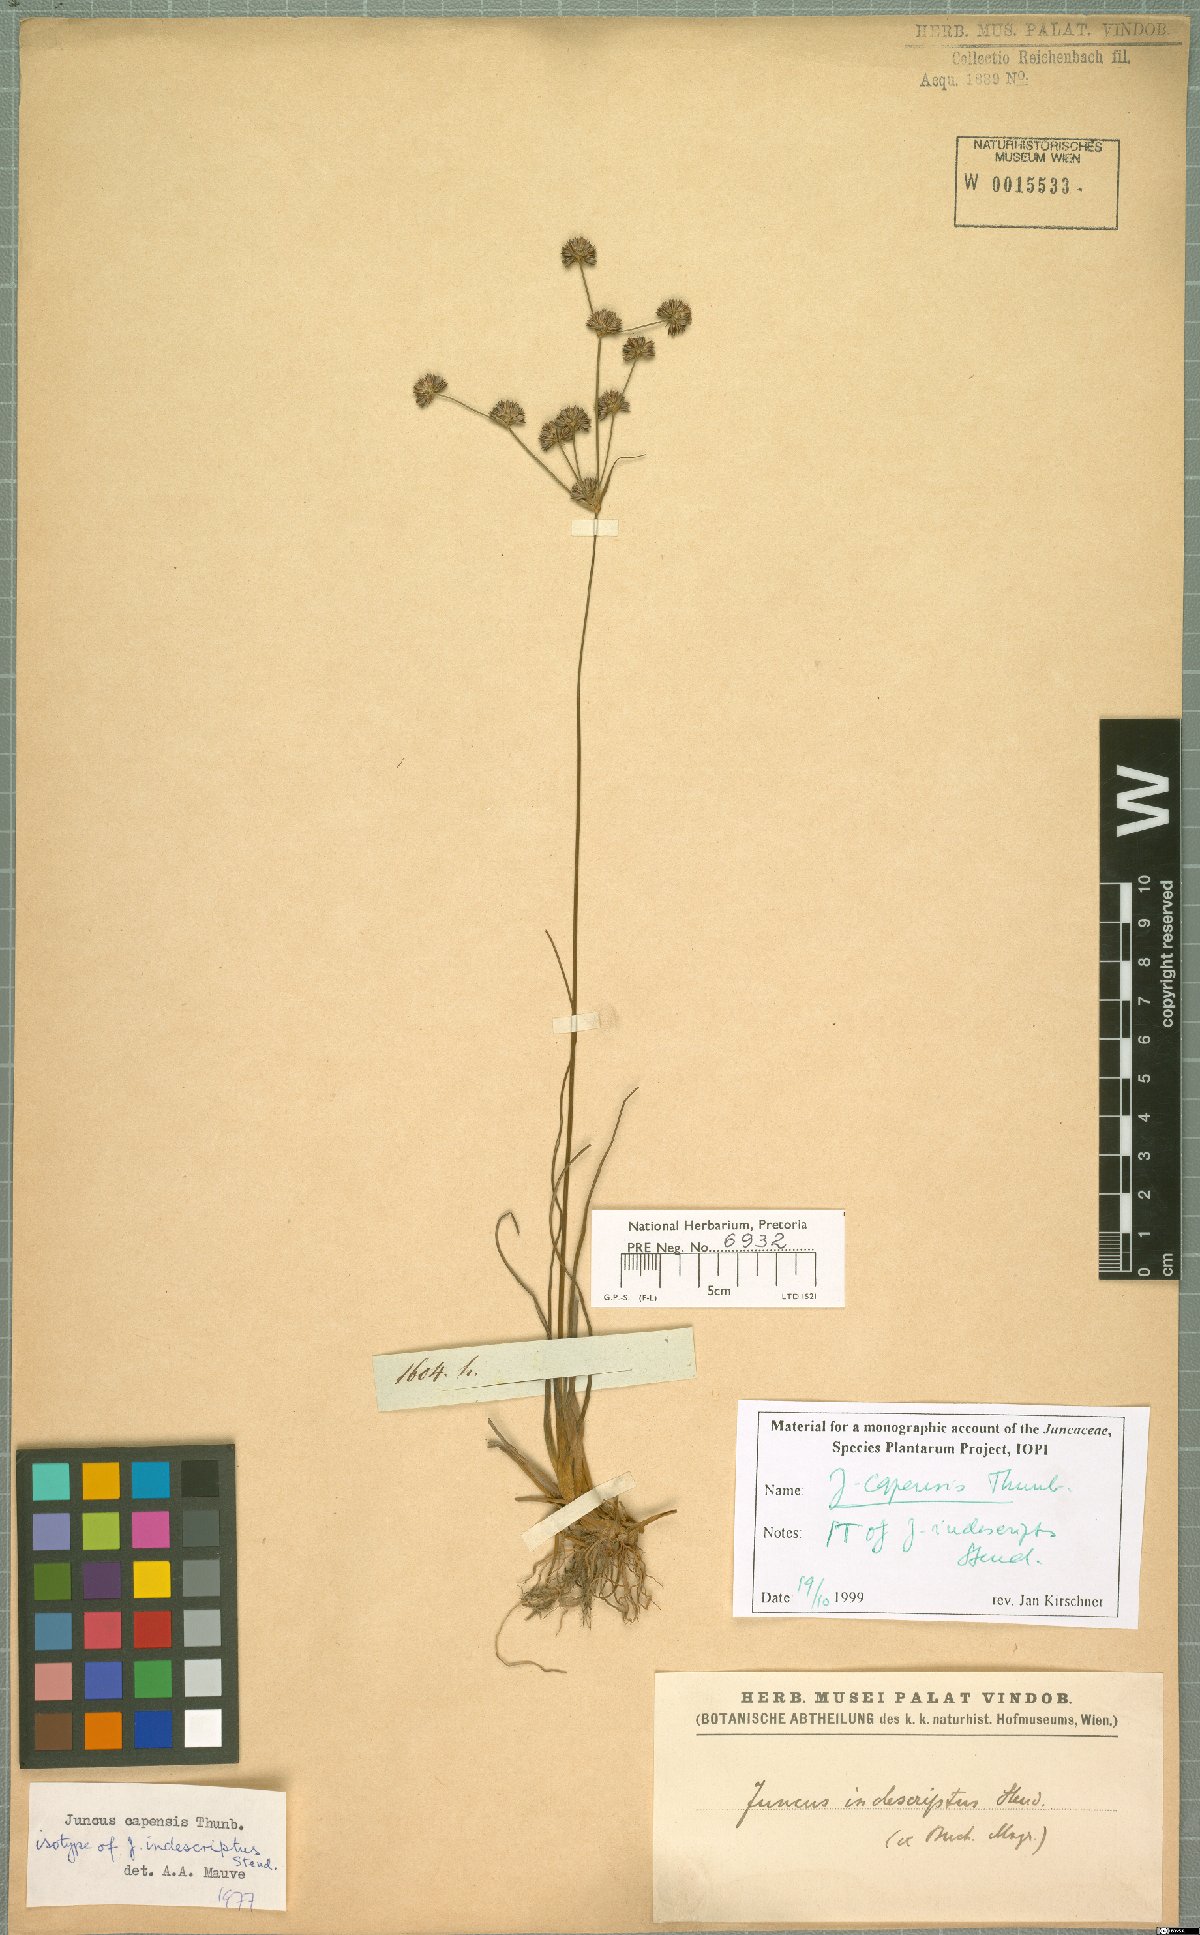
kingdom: Plantae
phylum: Tracheophyta
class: Liliopsida
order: Poales
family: Juncaceae
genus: Juncus
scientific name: Juncus capensis
